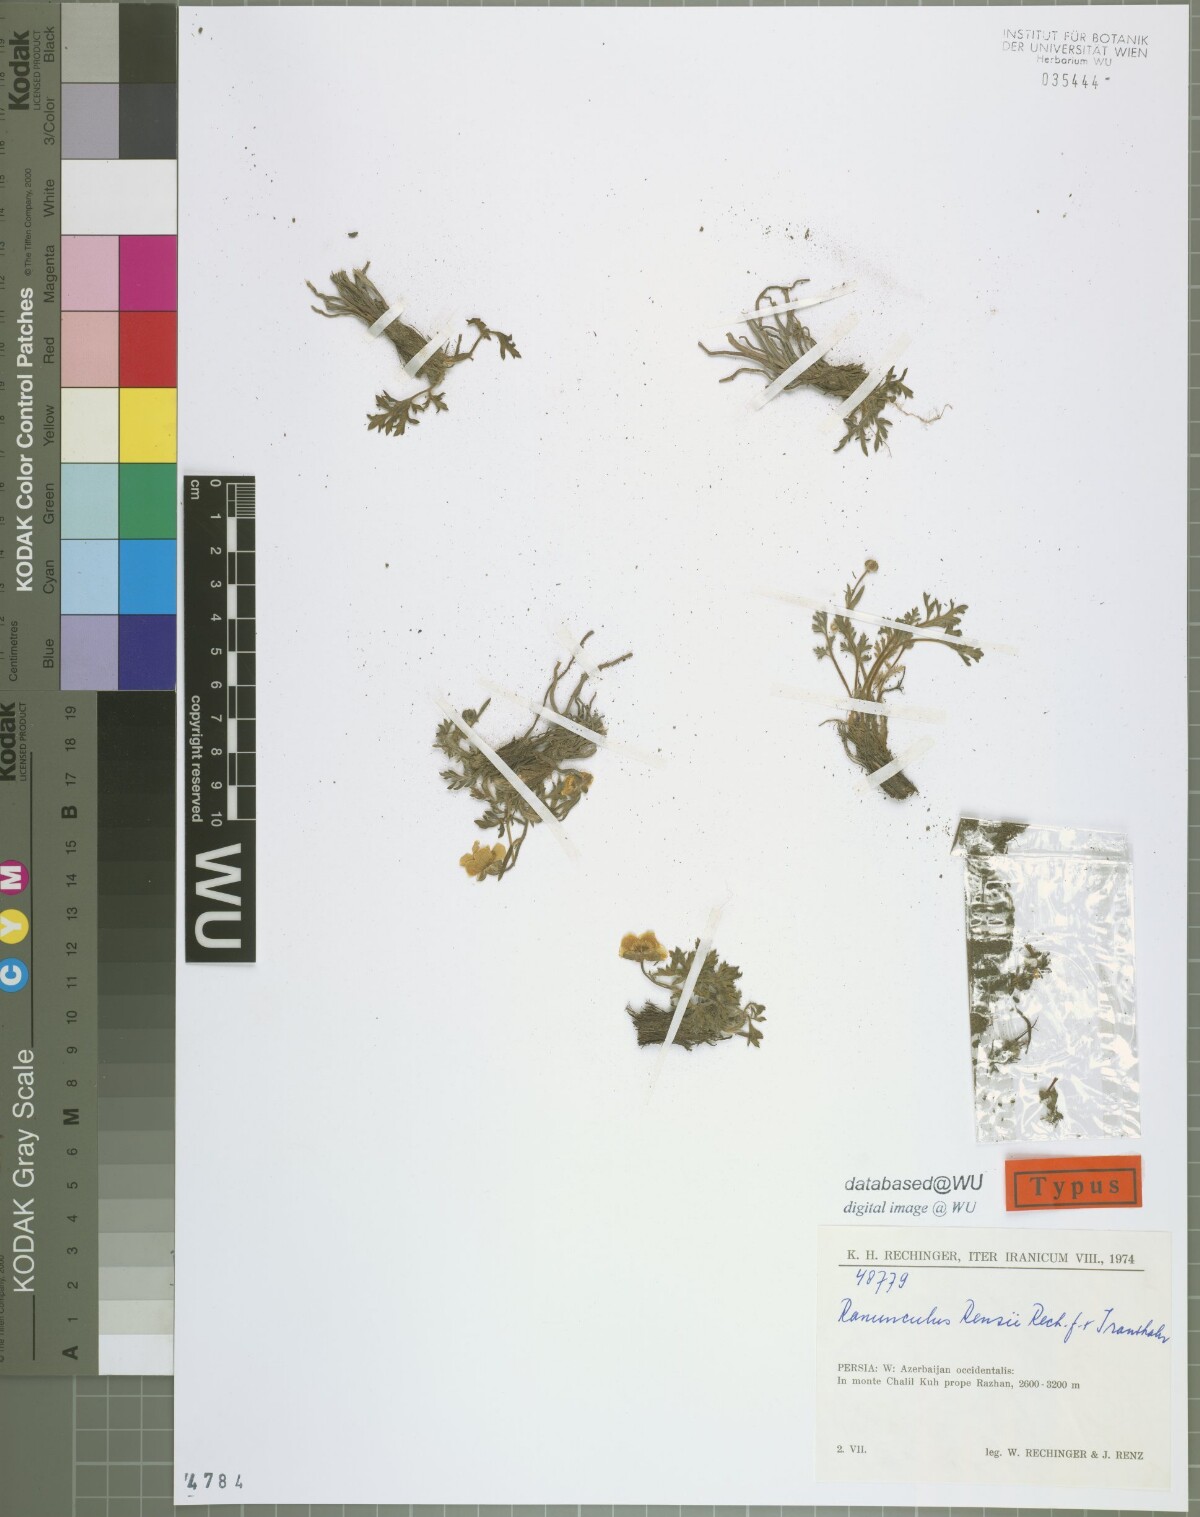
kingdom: Plantae
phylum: Tracheophyta
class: Magnoliopsida
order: Ranunculales
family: Ranunculaceae
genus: Ranunculus
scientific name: Ranunculus renzii
